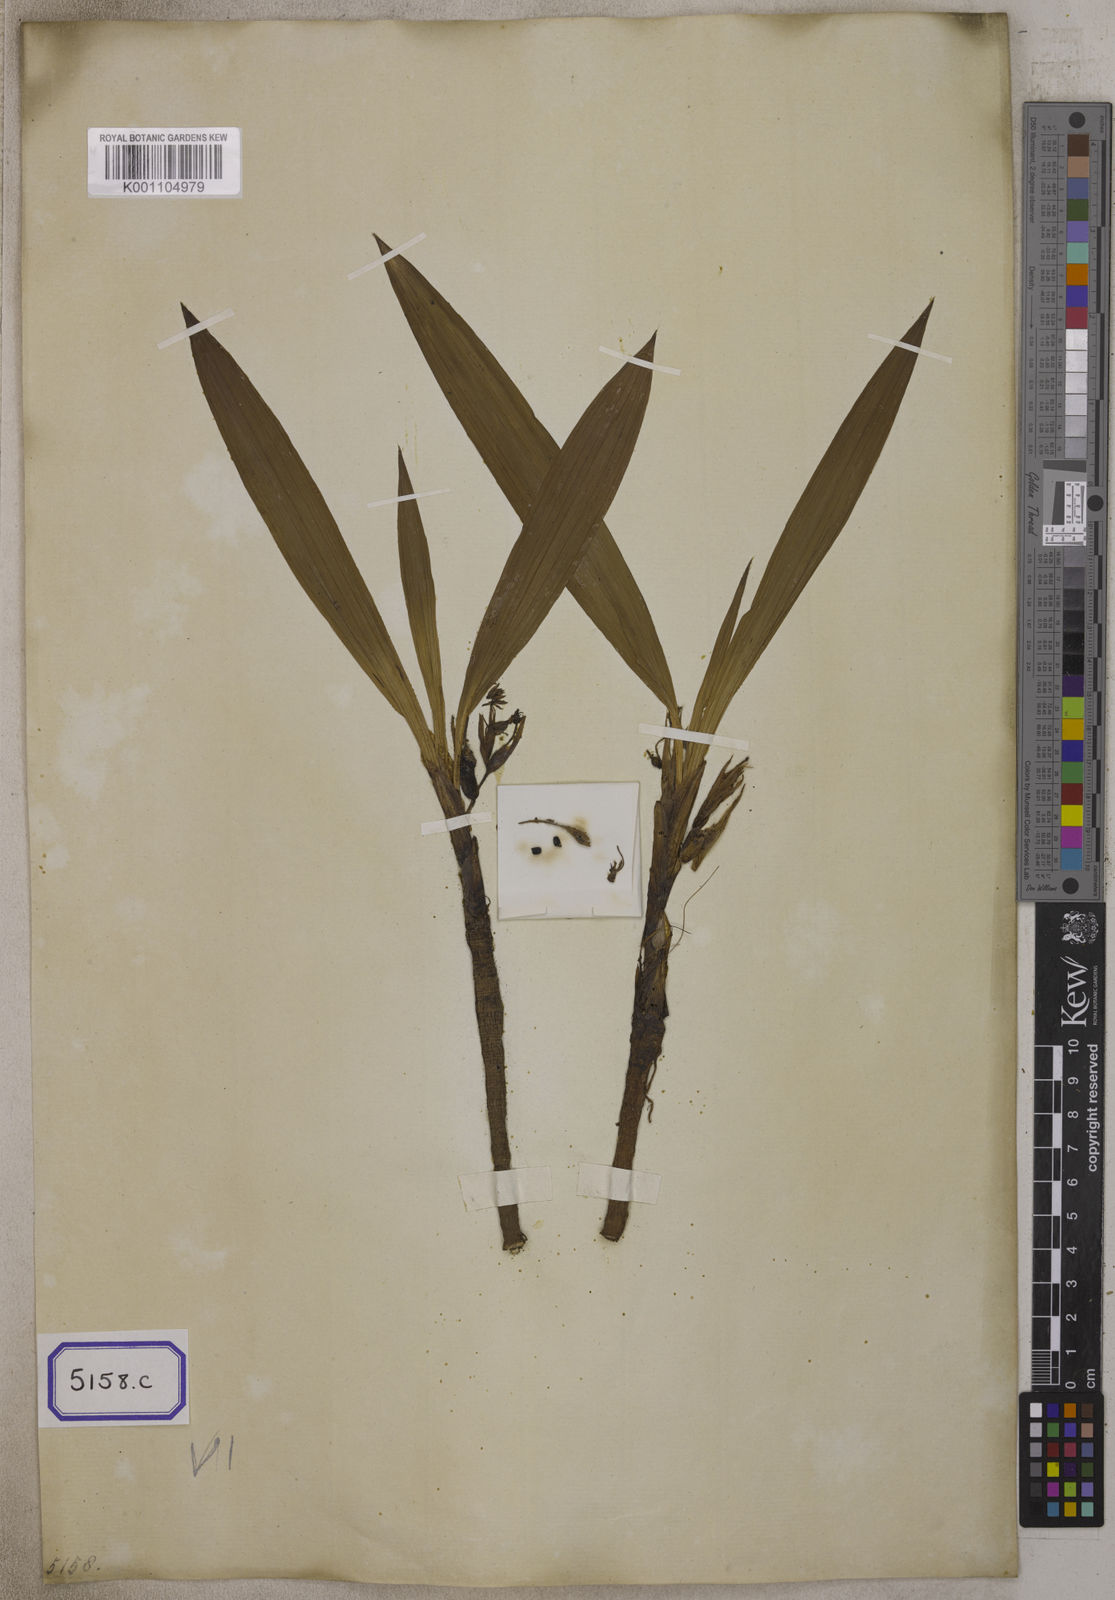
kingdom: Plantae
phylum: Tracheophyta
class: Liliopsida
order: Asparagales
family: Hypoxidaceae
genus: Curculigo
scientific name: Curculigo orchioides
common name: Golden eye-grass
